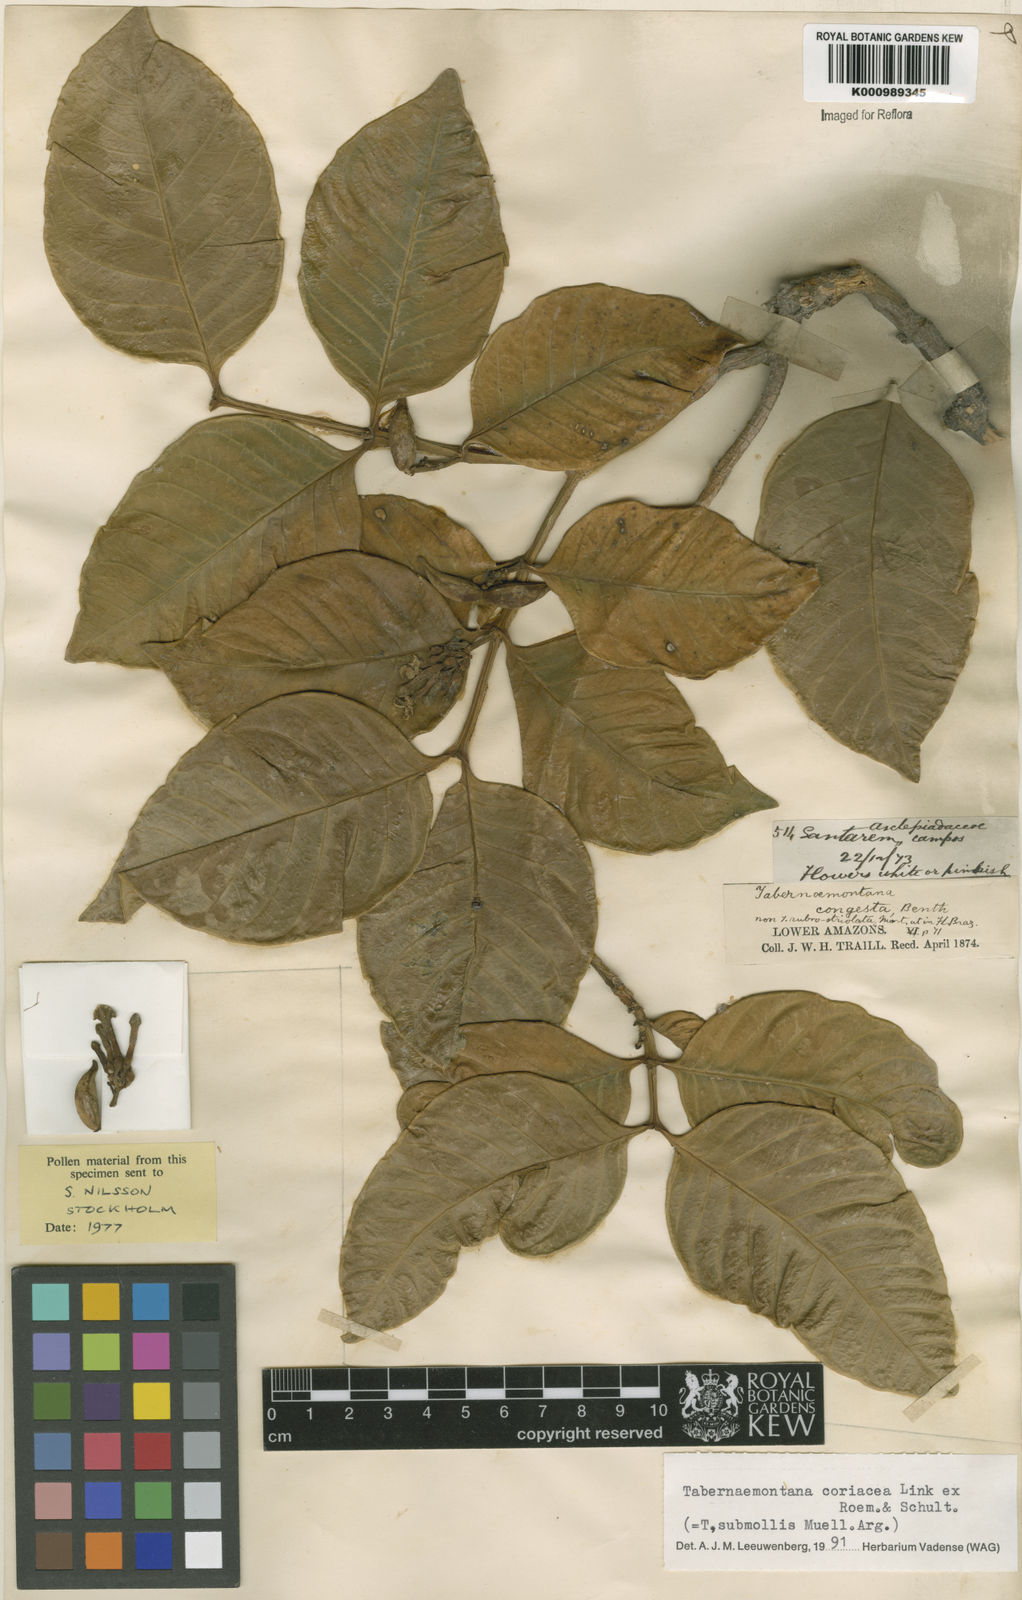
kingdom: Plantae
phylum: Tracheophyta
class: Magnoliopsida
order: Gentianales
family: Apocynaceae
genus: Tabernaemontana
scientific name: Tabernaemontana coriacea
